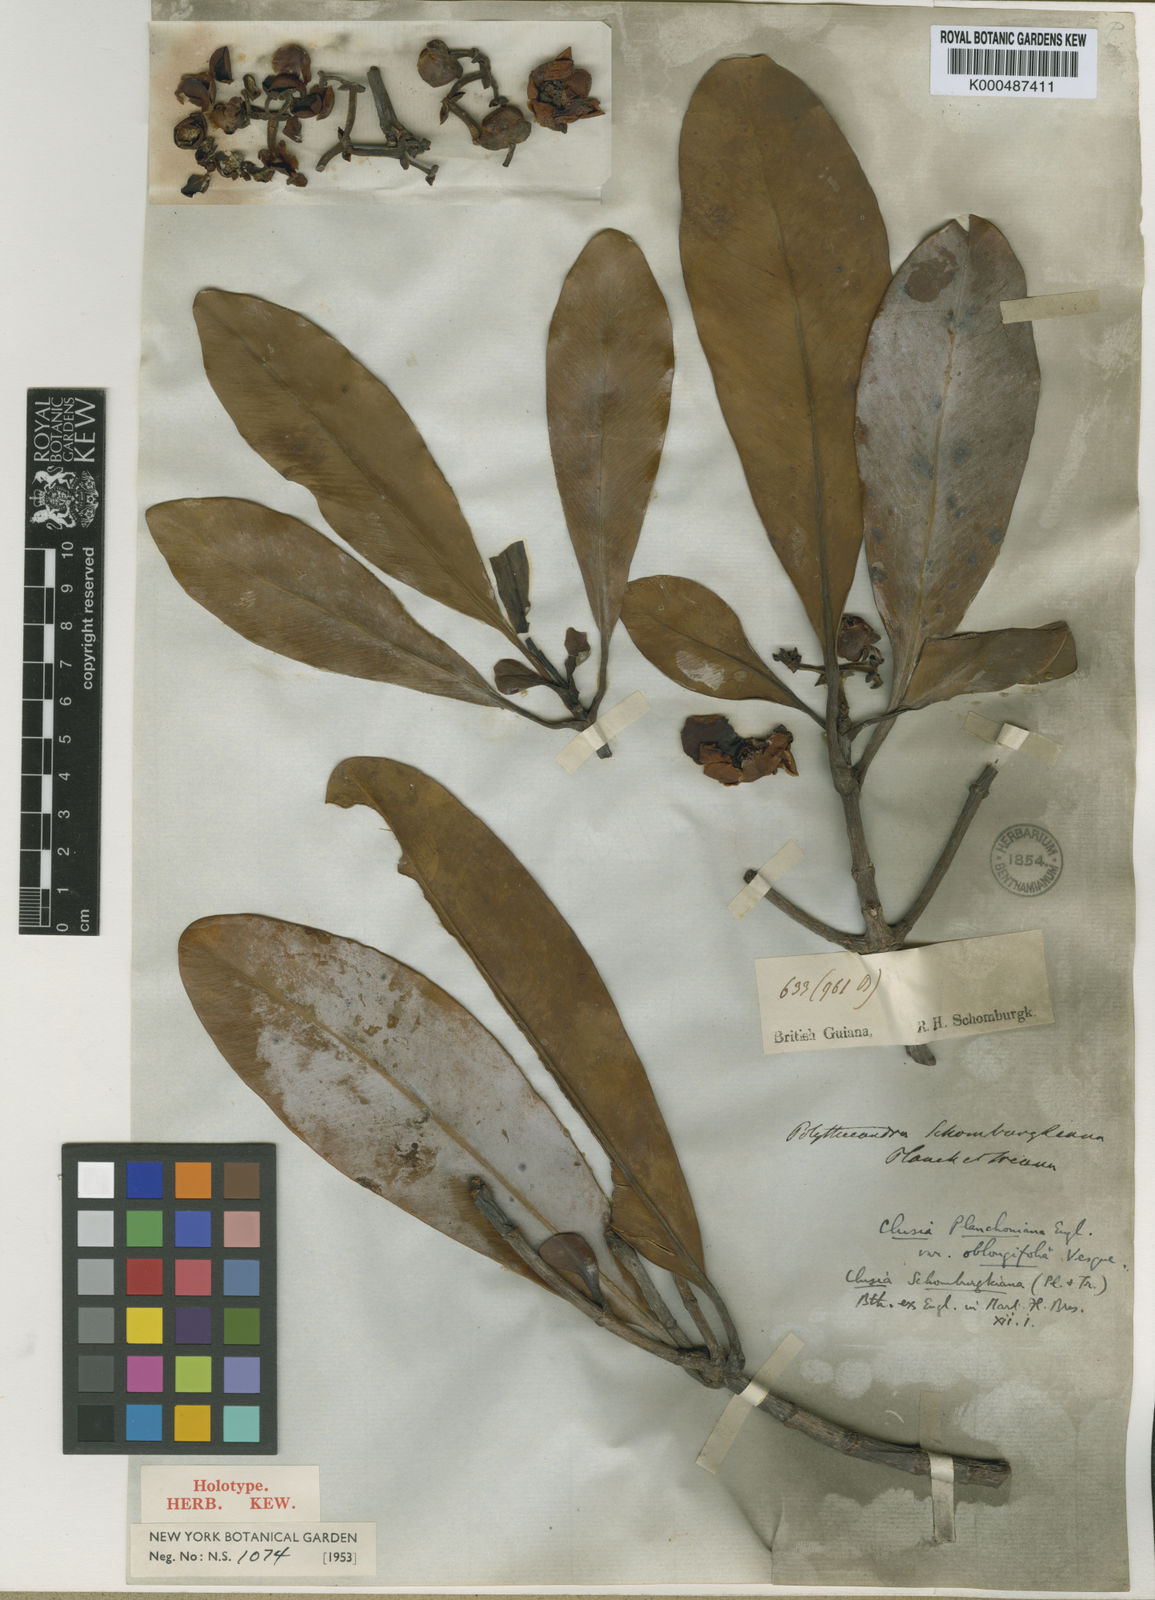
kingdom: Plantae
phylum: Tracheophyta
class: Magnoliopsida
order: Malpighiales
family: Clusiaceae
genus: Clusia
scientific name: Clusia schomburgkiana
